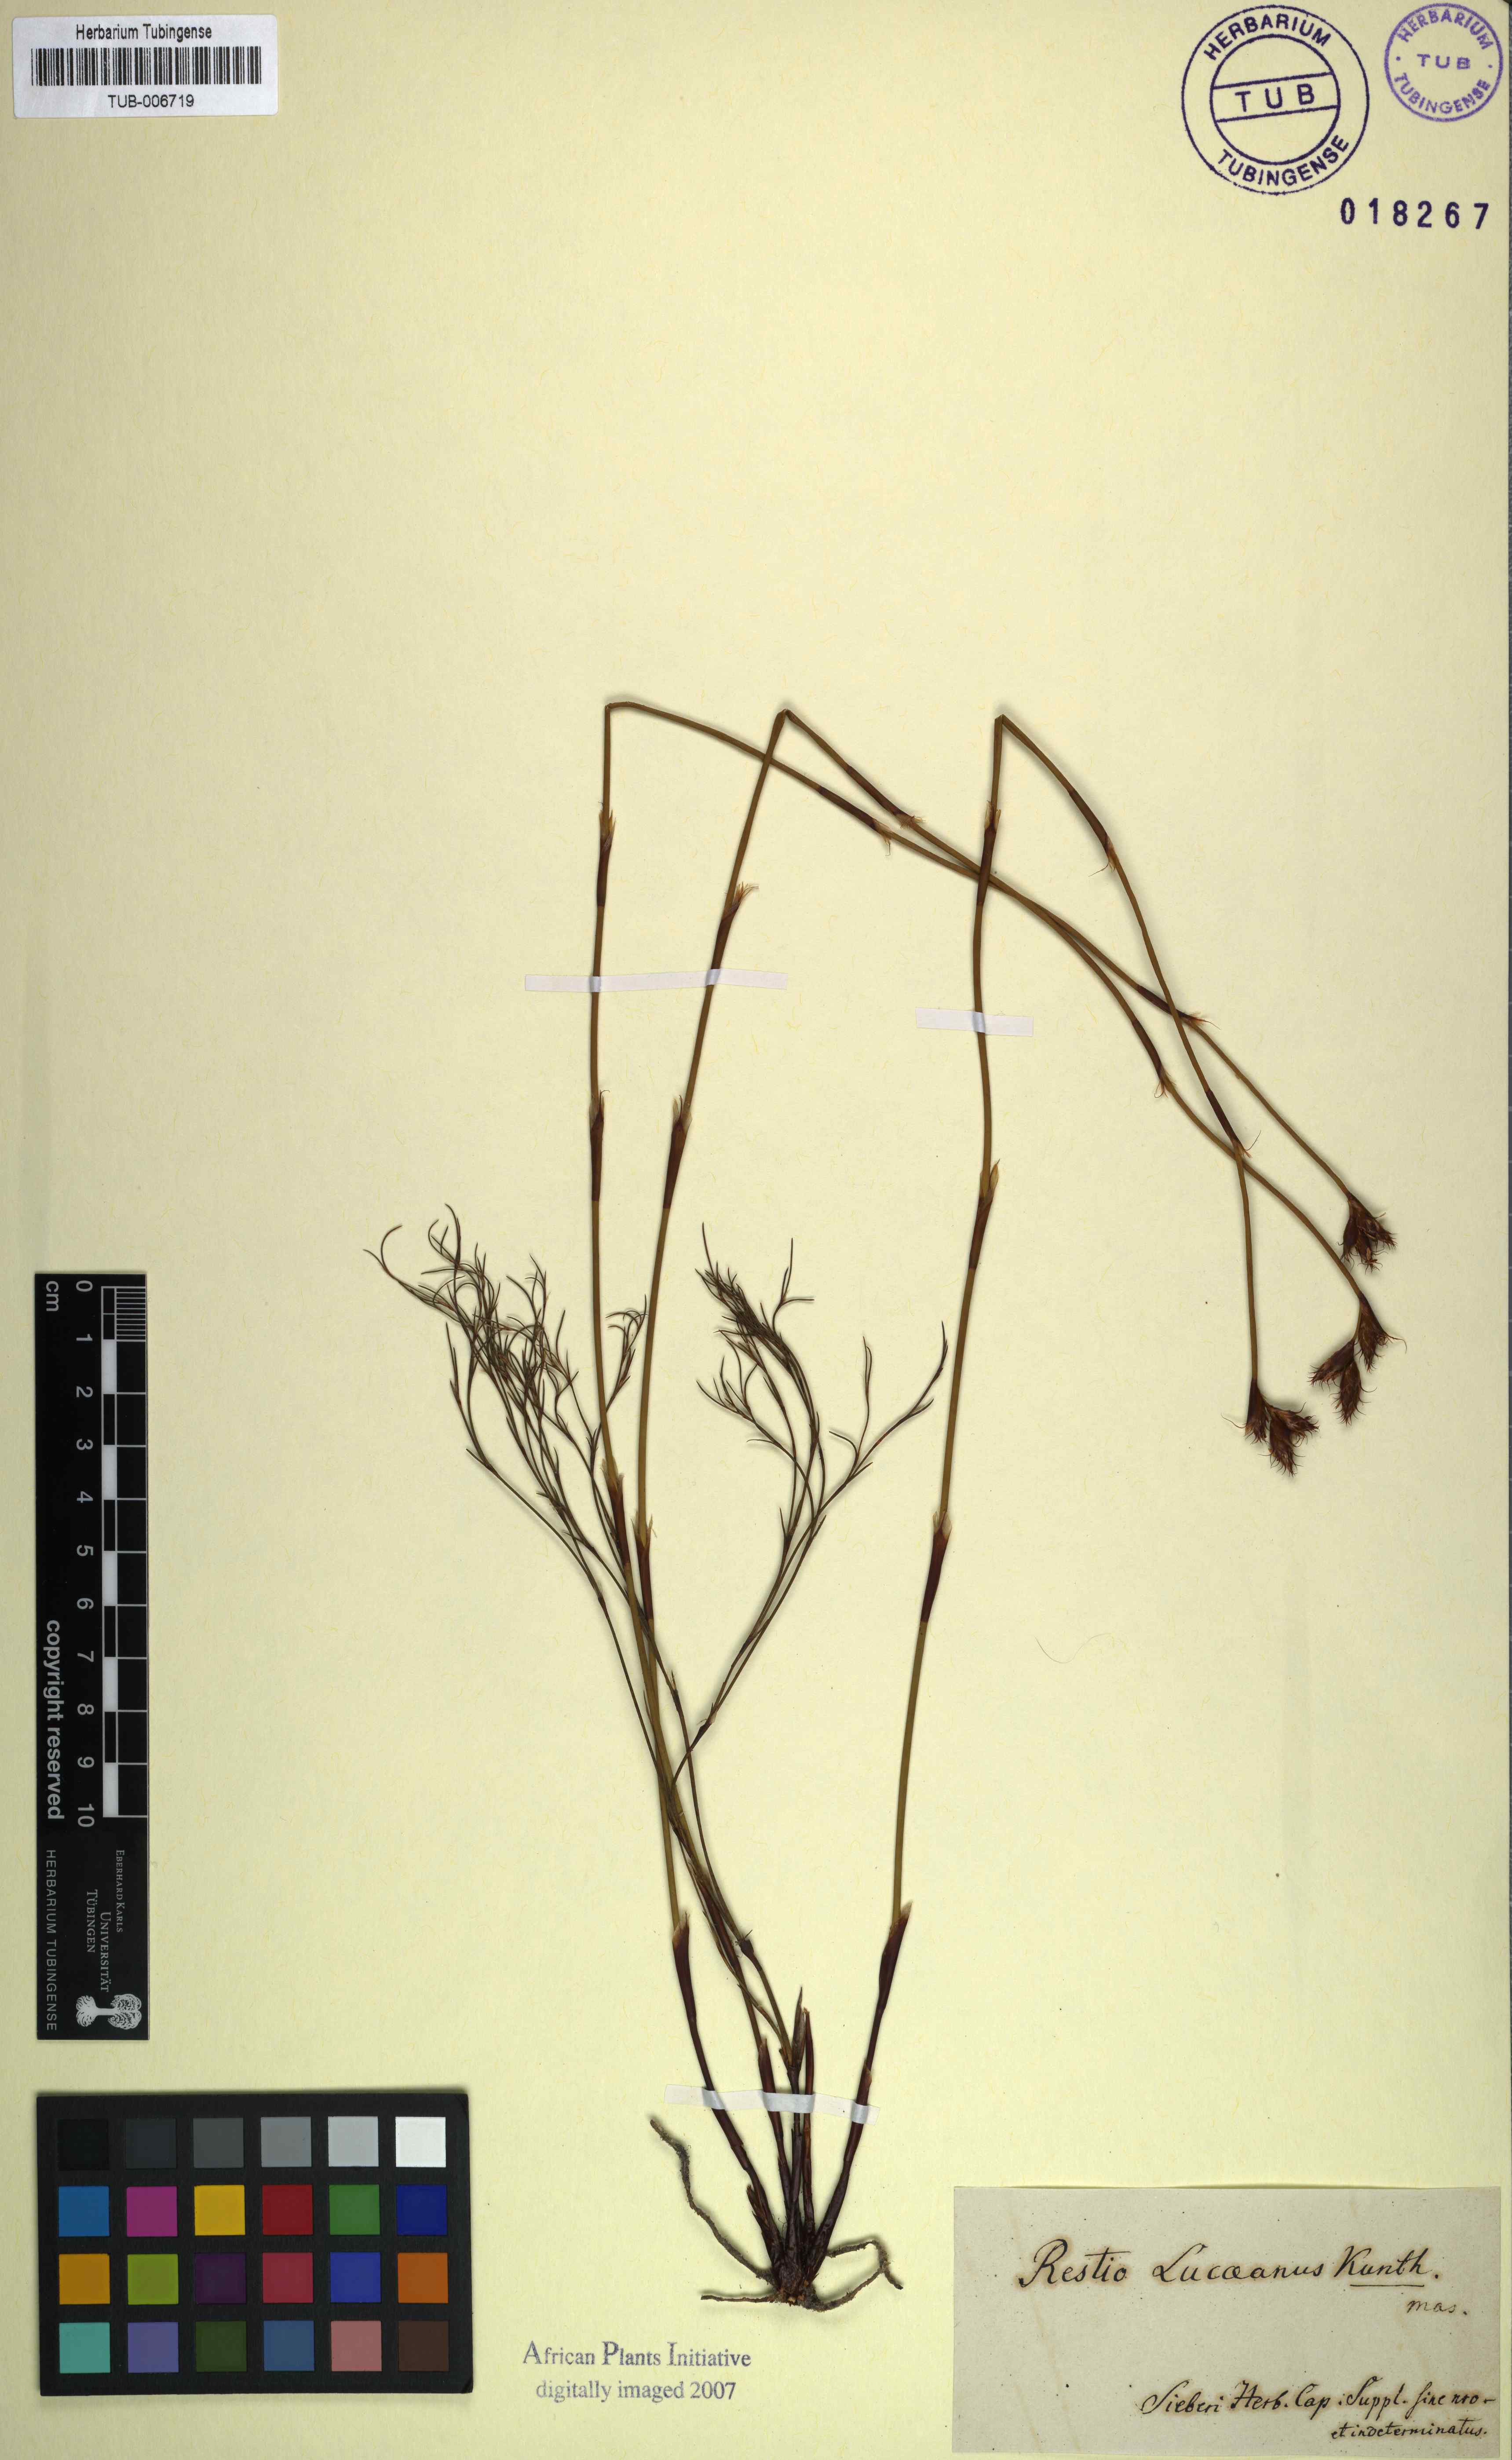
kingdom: Plantae
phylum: Tracheophyta
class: Liliopsida
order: Poales
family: Restionaceae
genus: Restio
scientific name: Restio capensis
